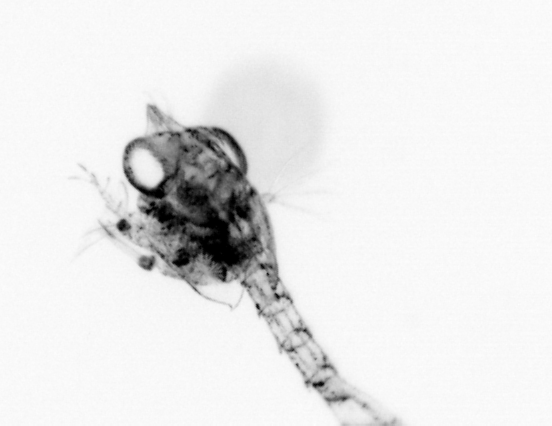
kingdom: Animalia
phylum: Arthropoda
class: Malacostraca
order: Decapoda
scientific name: Decapoda
